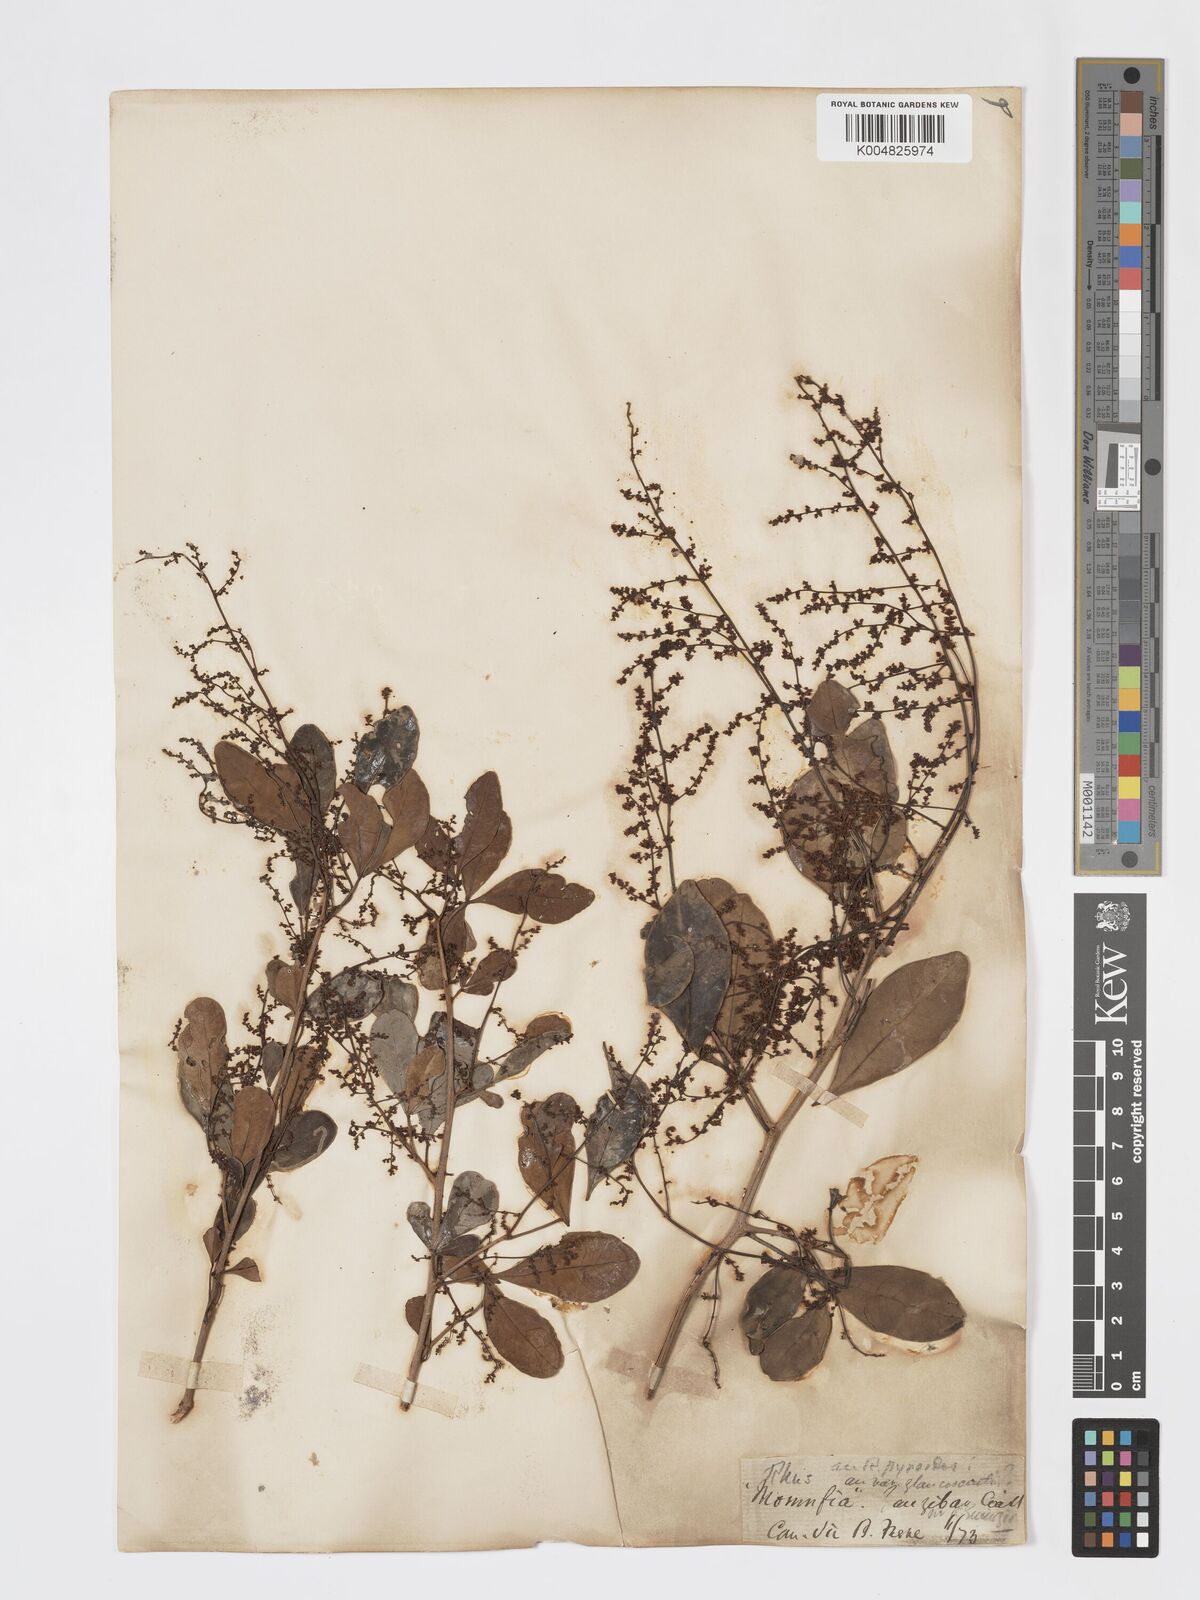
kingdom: Plantae
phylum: Tracheophyta
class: Magnoliopsida
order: Sapindales
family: Anacardiaceae
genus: Searsia
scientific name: Searsia natalensis
